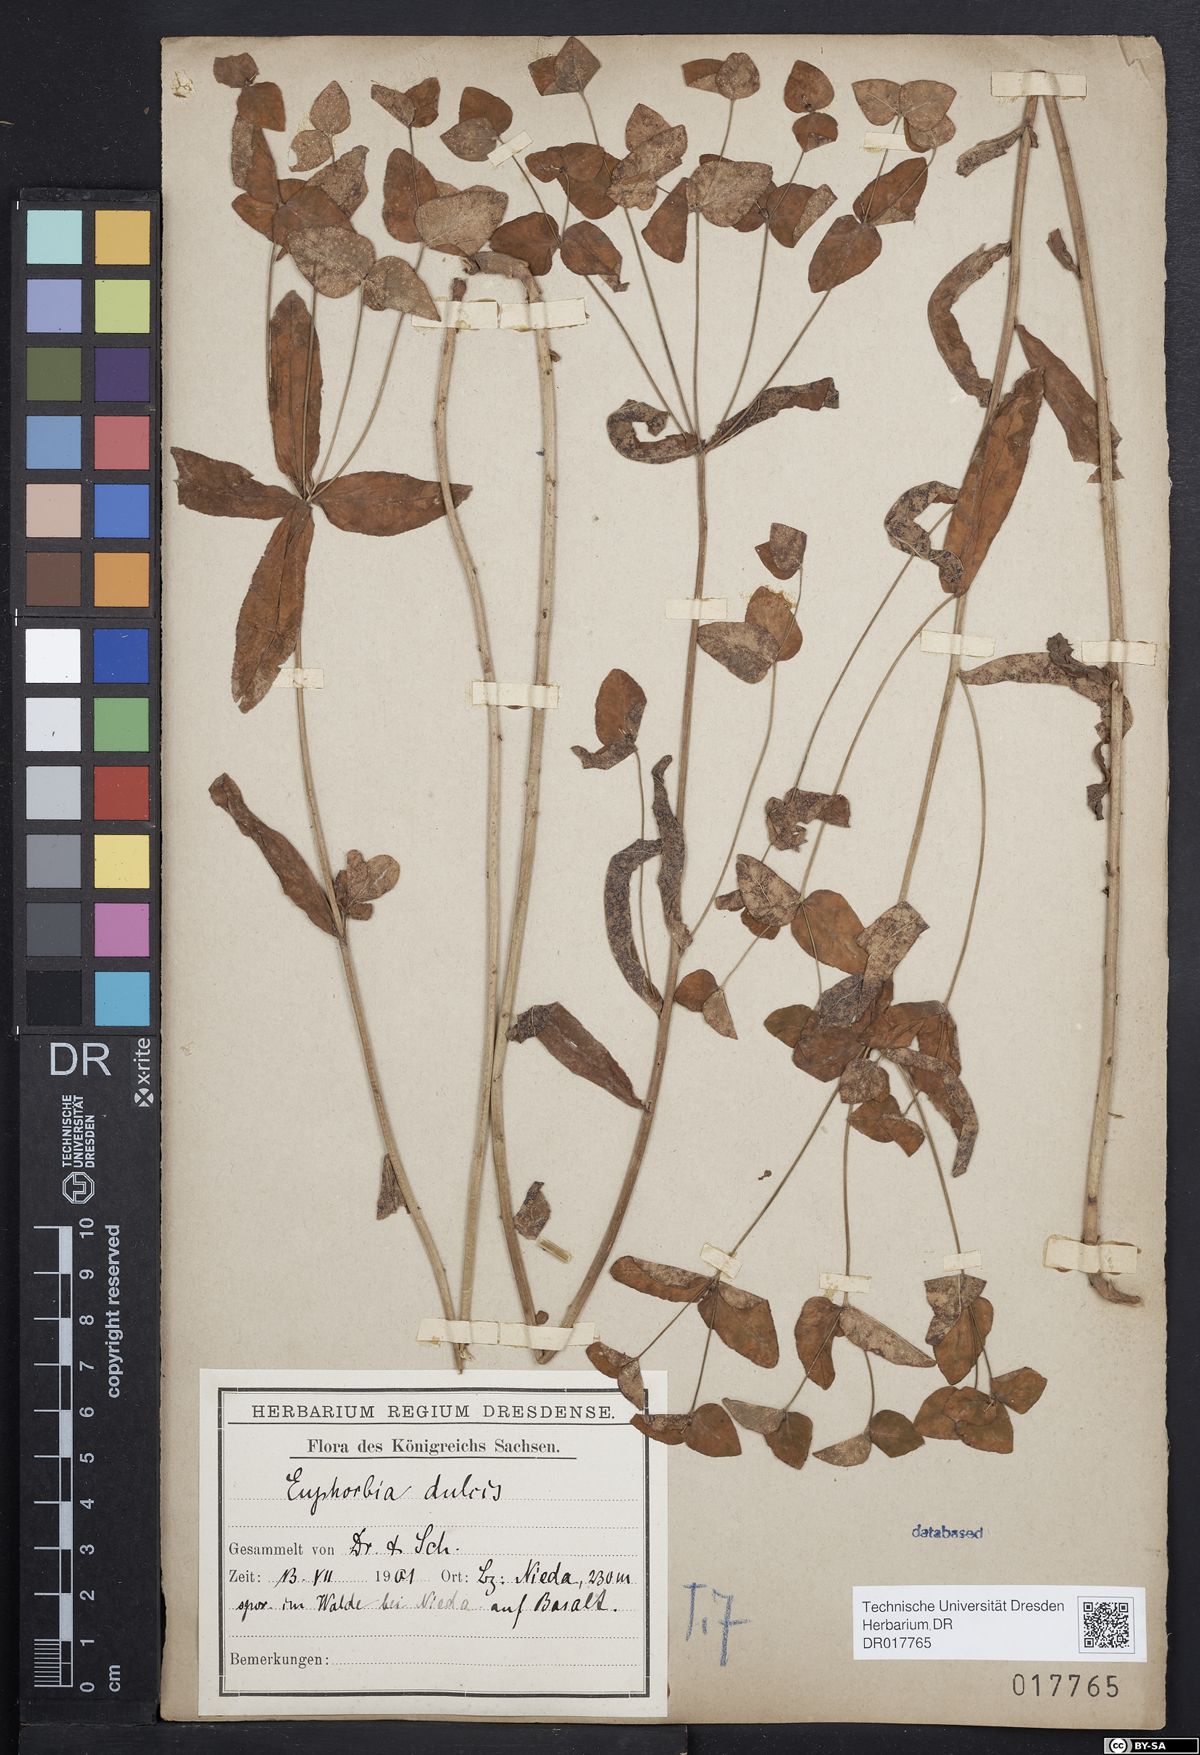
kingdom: Plantae
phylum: Tracheophyta
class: Magnoliopsida
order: Malpighiales
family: Euphorbiaceae
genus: Euphorbia
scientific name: Euphorbia dulcis
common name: Sweet spurge
